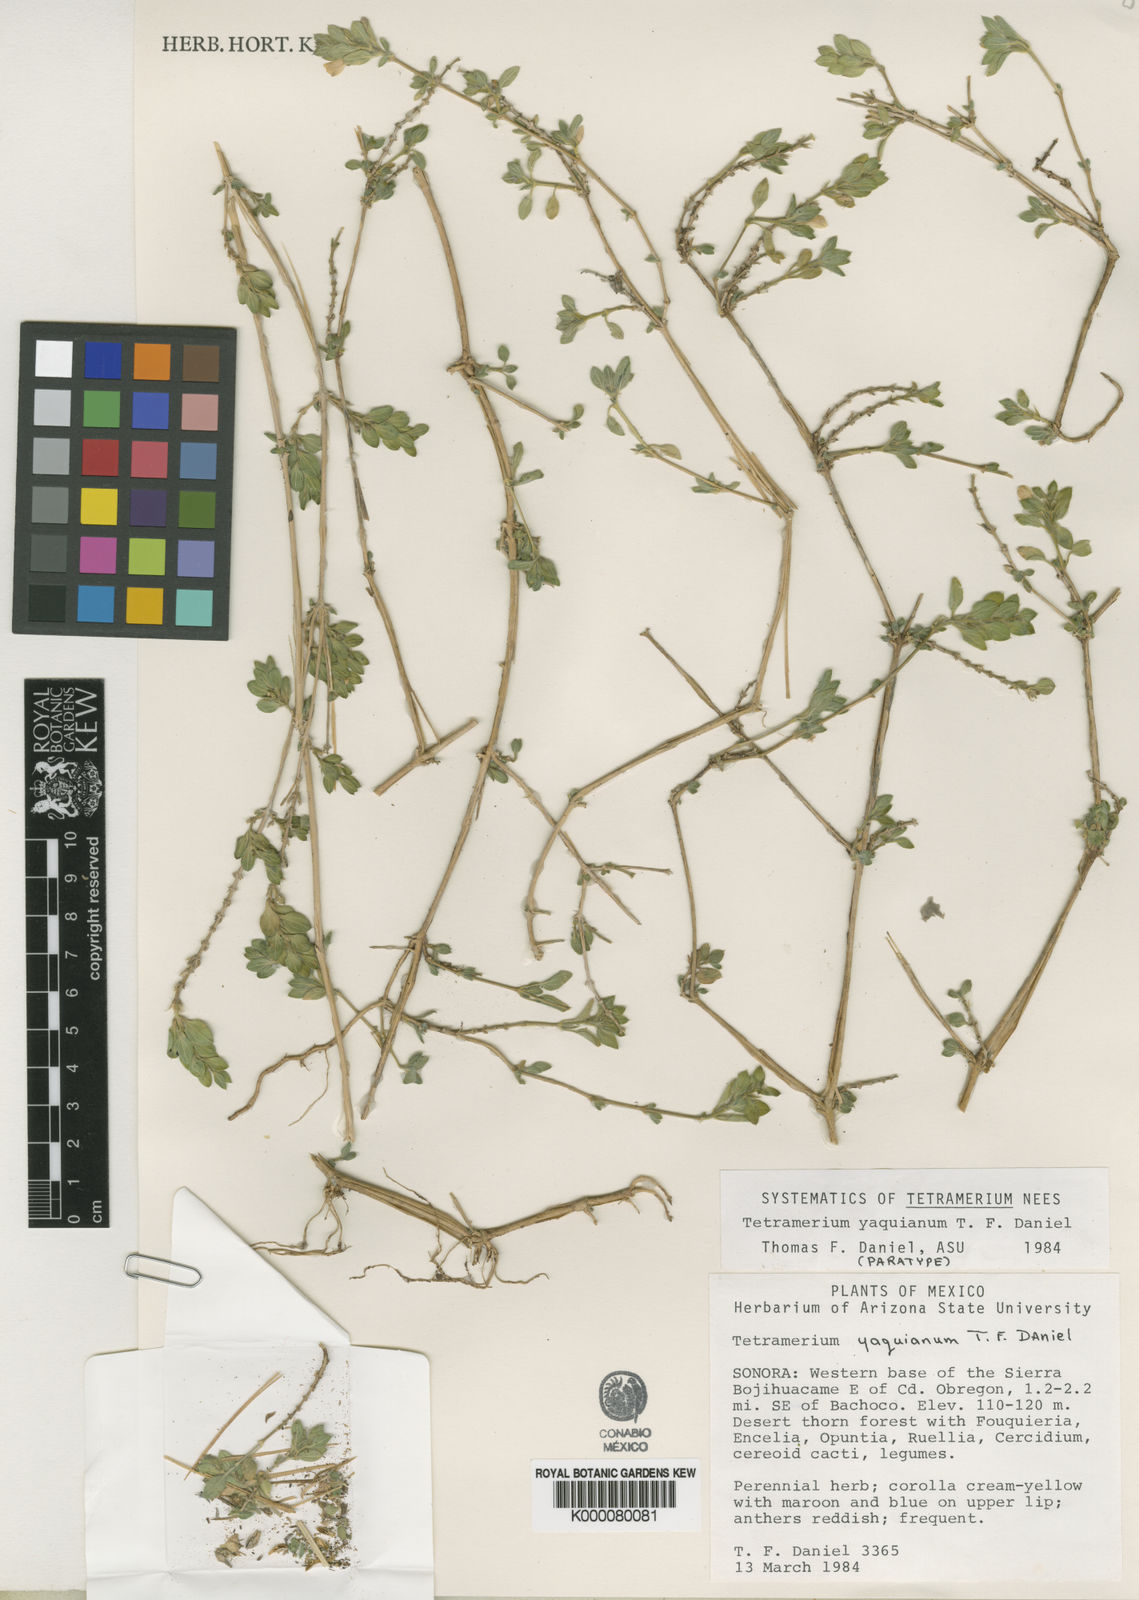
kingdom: Plantae
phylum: Tracheophyta
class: Magnoliopsida
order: Lamiales
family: Acanthaceae
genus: Tetramerium
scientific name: Tetramerium yaquianum
